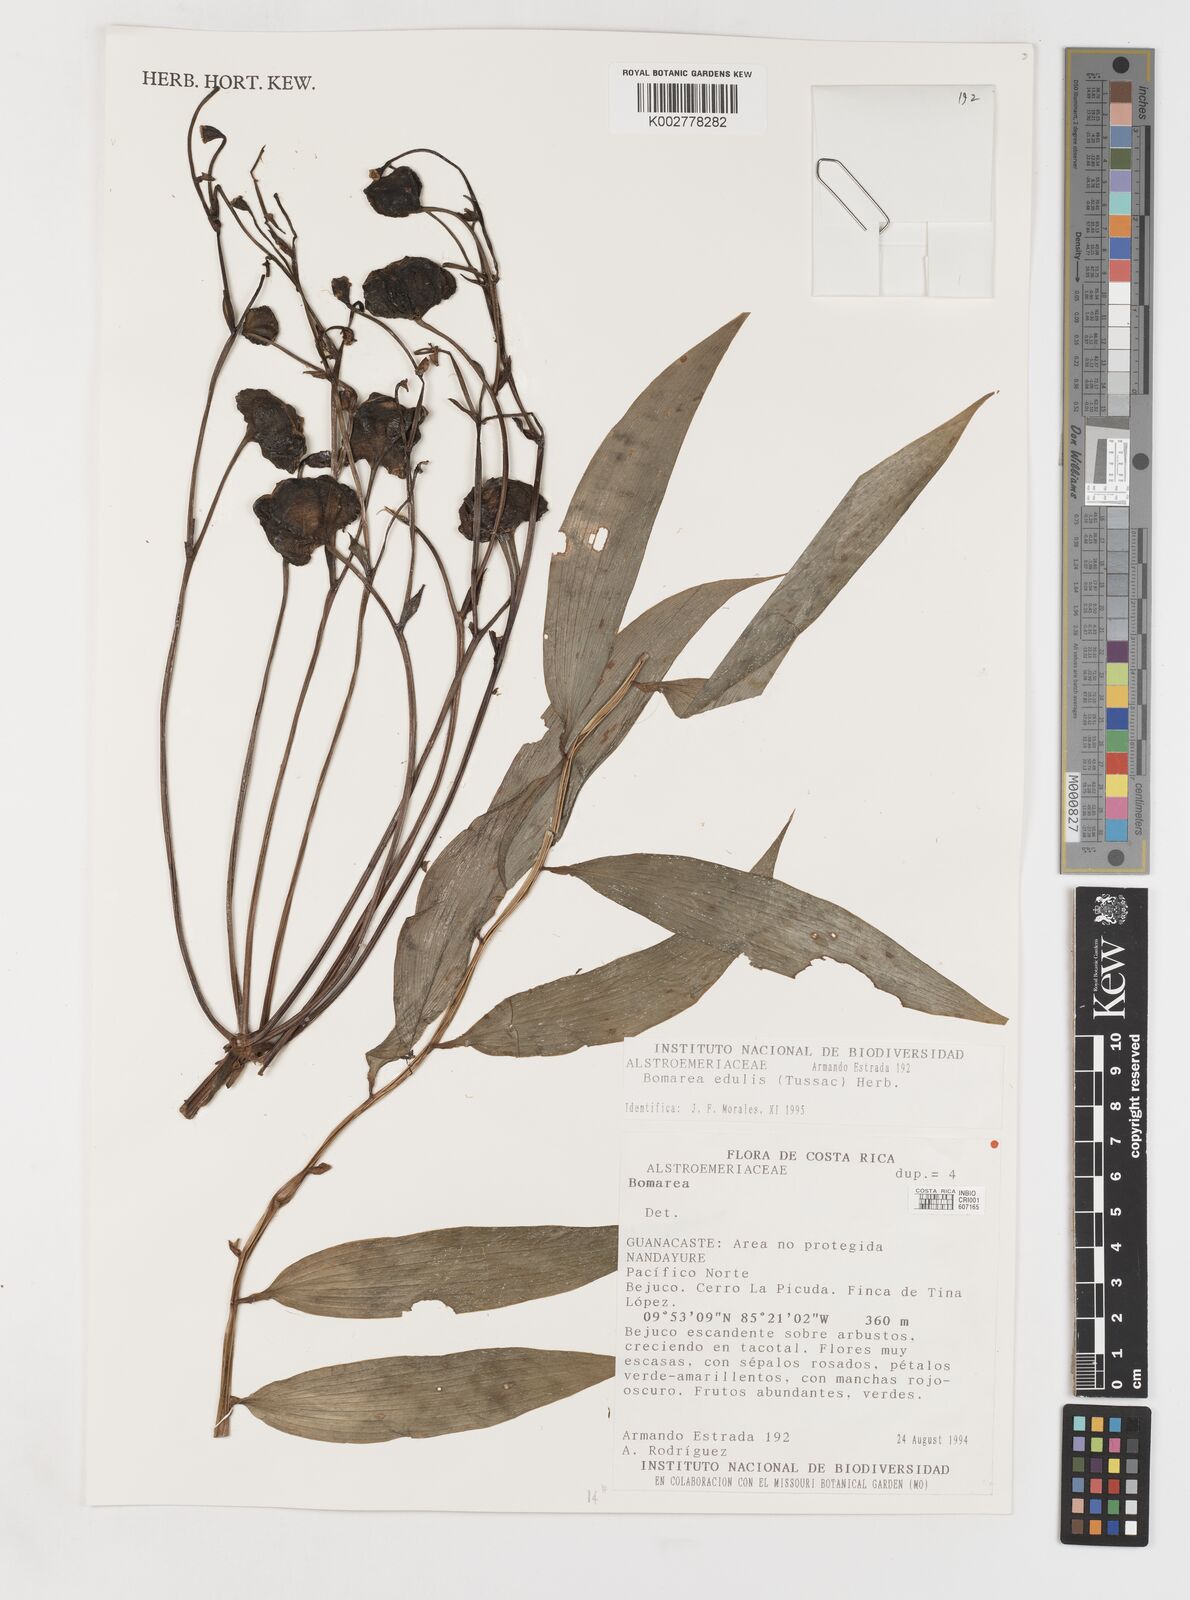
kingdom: Plantae
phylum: Tracheophyta
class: Liliopsida
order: Liliales
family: Alstroemeriaceae
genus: Bomarea
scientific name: Bomarea edulis
